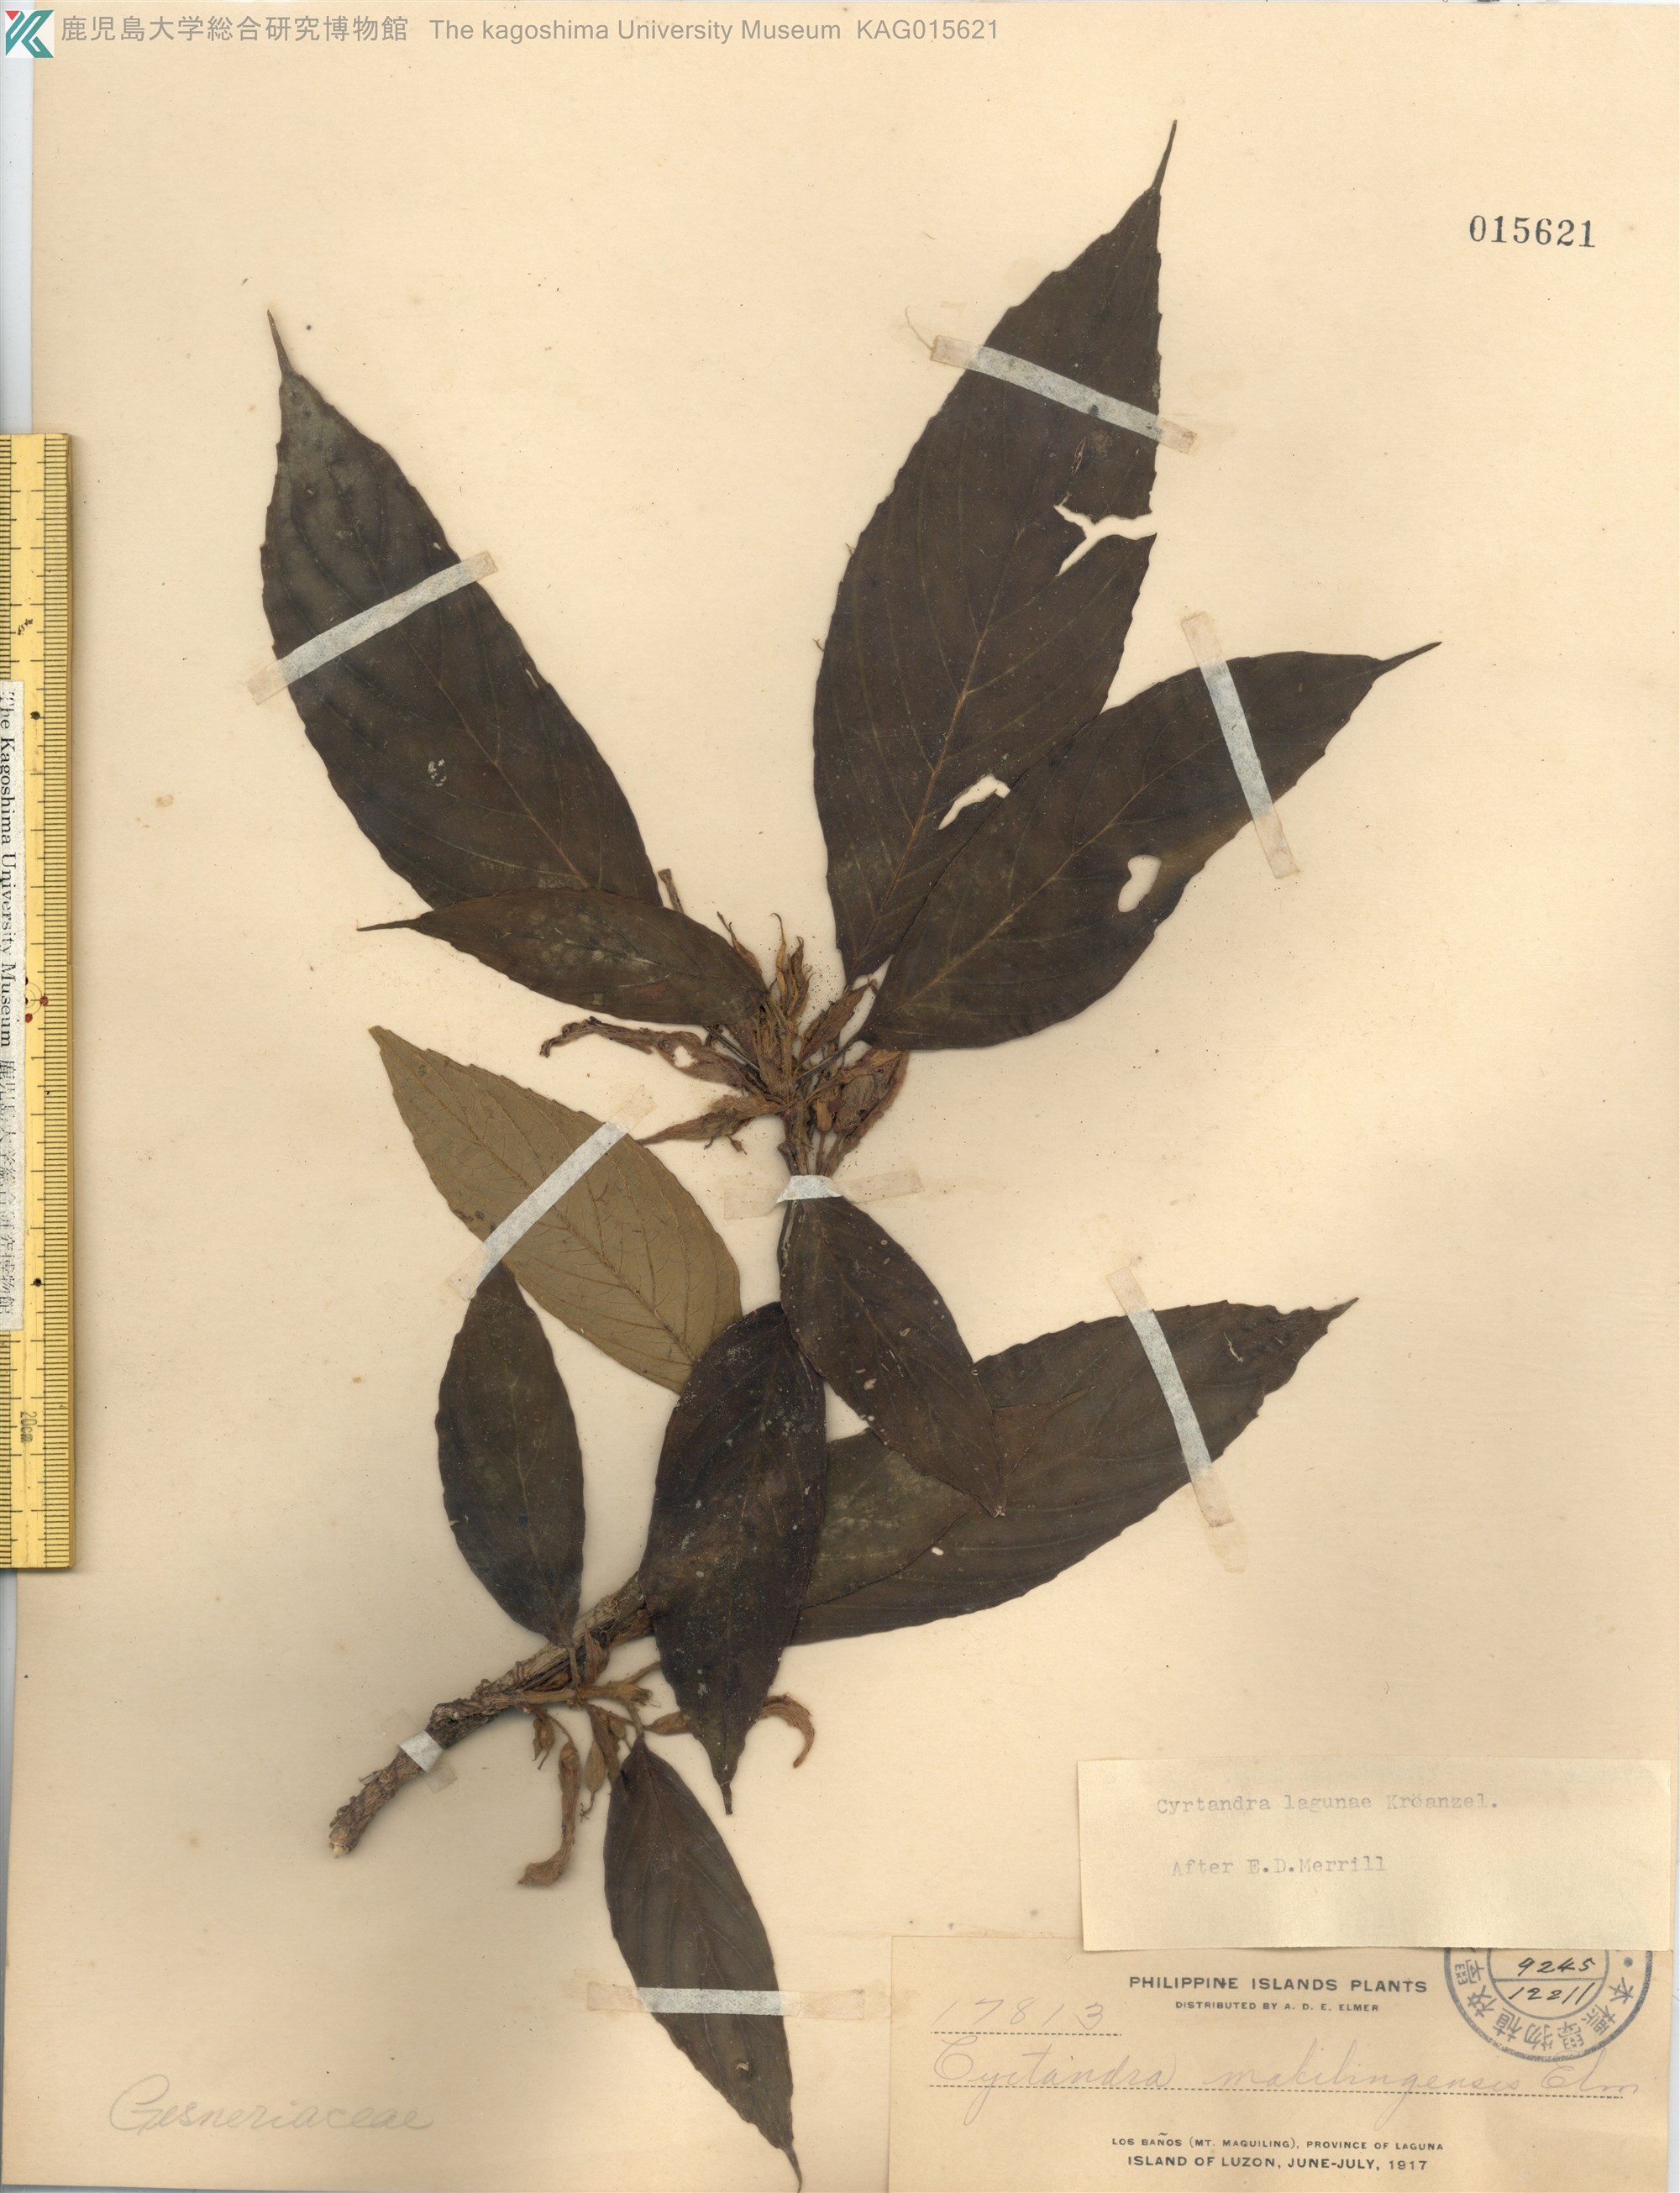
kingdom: Plantae
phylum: Tracheophyta
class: Magnoliopsida
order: Lamiales
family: Gesneriaceae
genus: Cyrtandra
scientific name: Cyrtandra lagunae
